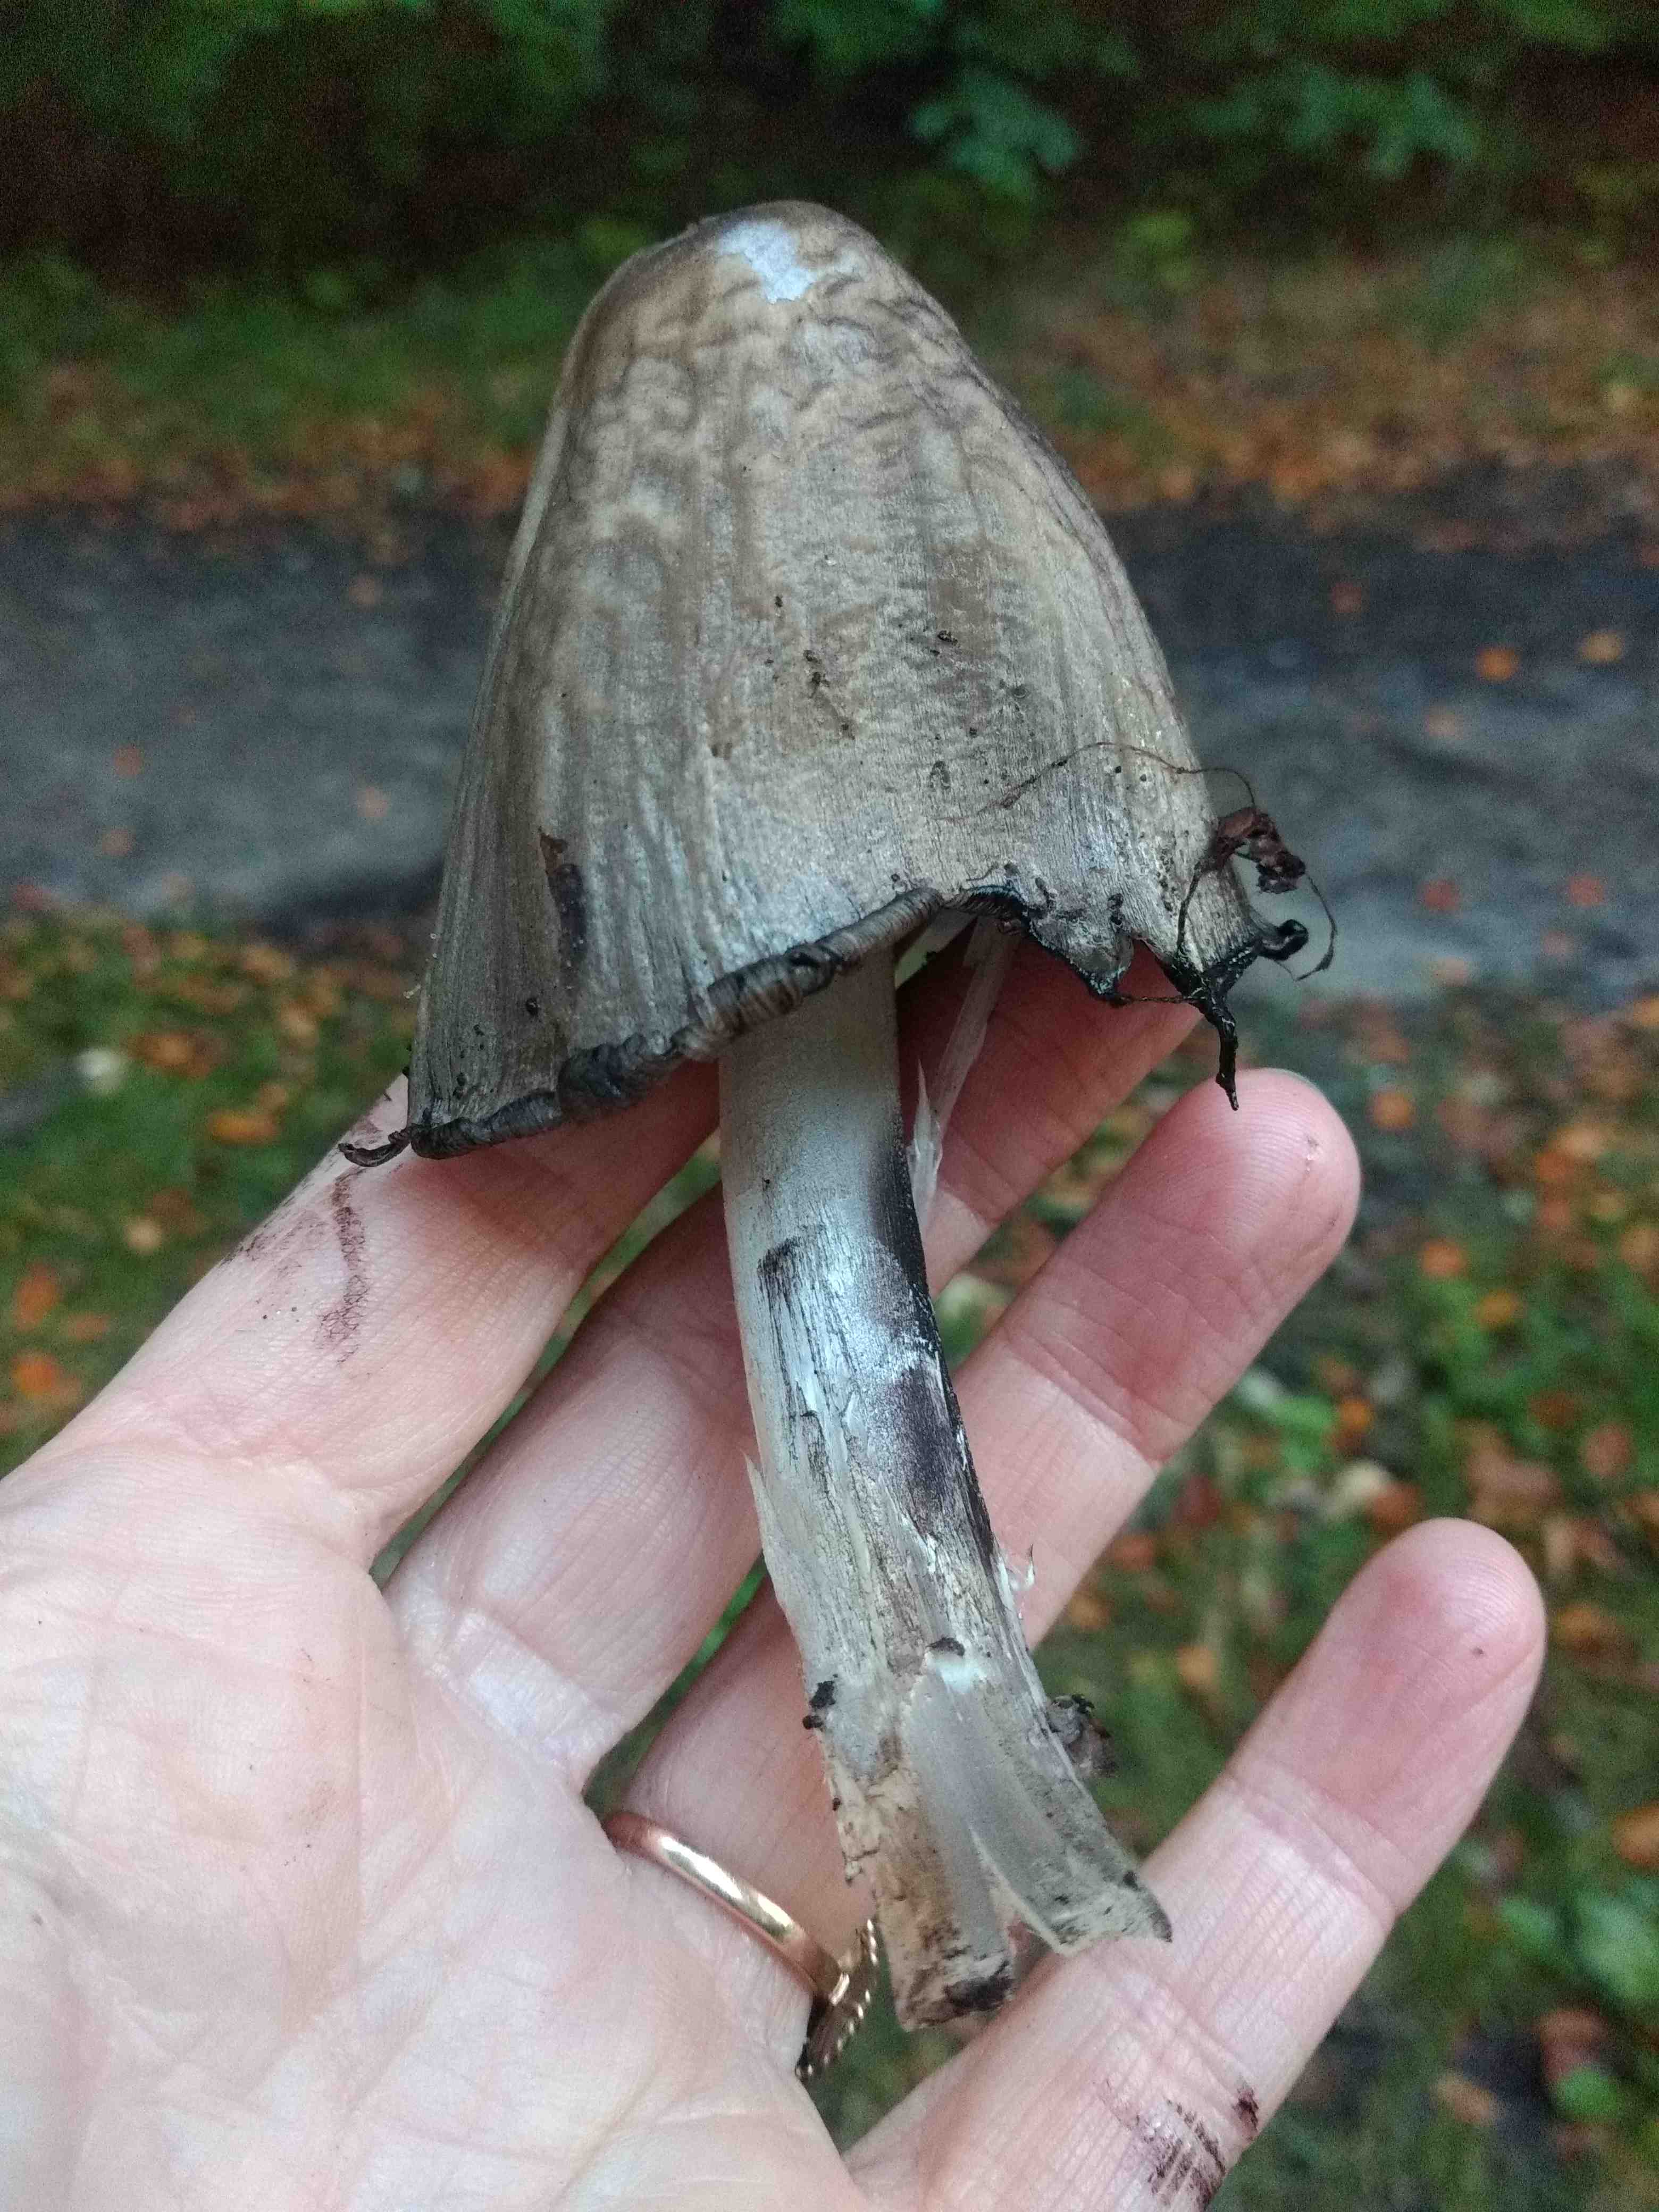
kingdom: Fungi
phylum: Basidiomycota
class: Agaricomycetes
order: Agaricales
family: Psathyrellaceae
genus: Coprinopsis
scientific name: Coprinopsis atramentaria
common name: almindelig blækhat
